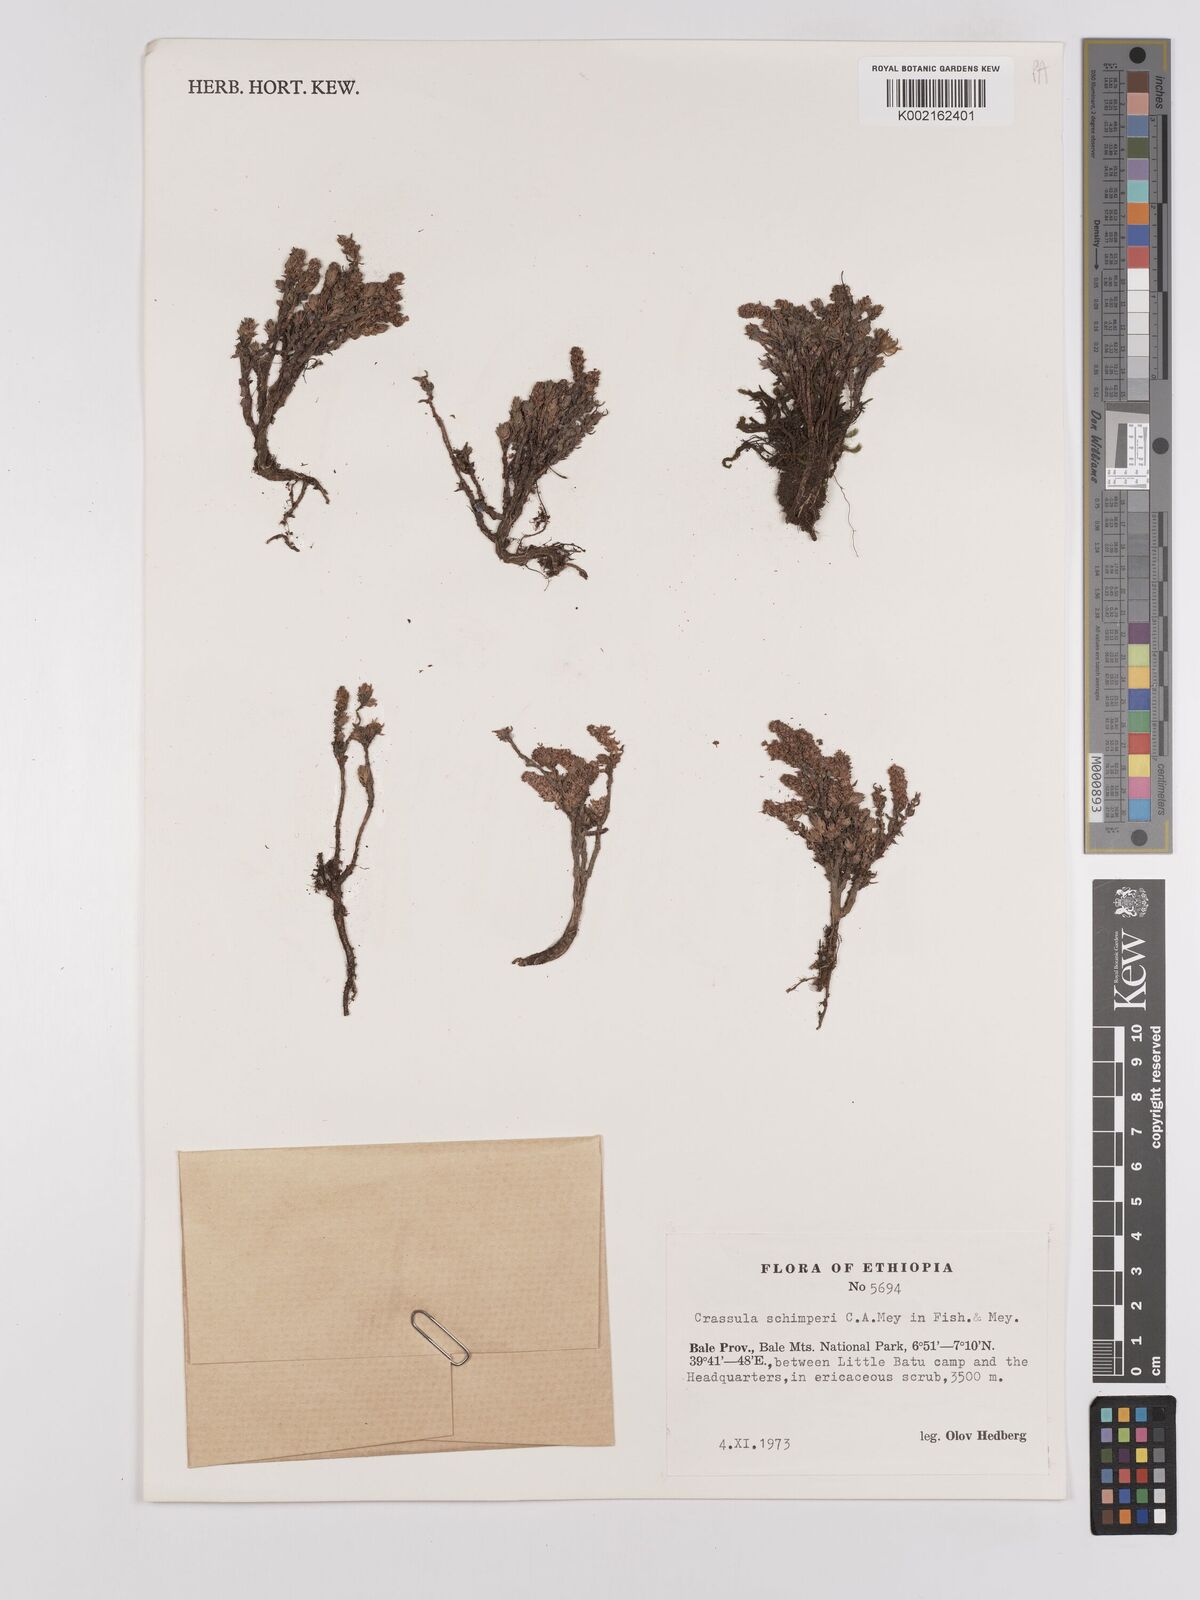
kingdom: Plantae
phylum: Tracheophyta
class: Magnoliopsida
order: Saxifragales
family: Crassulaceae
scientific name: Crassulaceae
